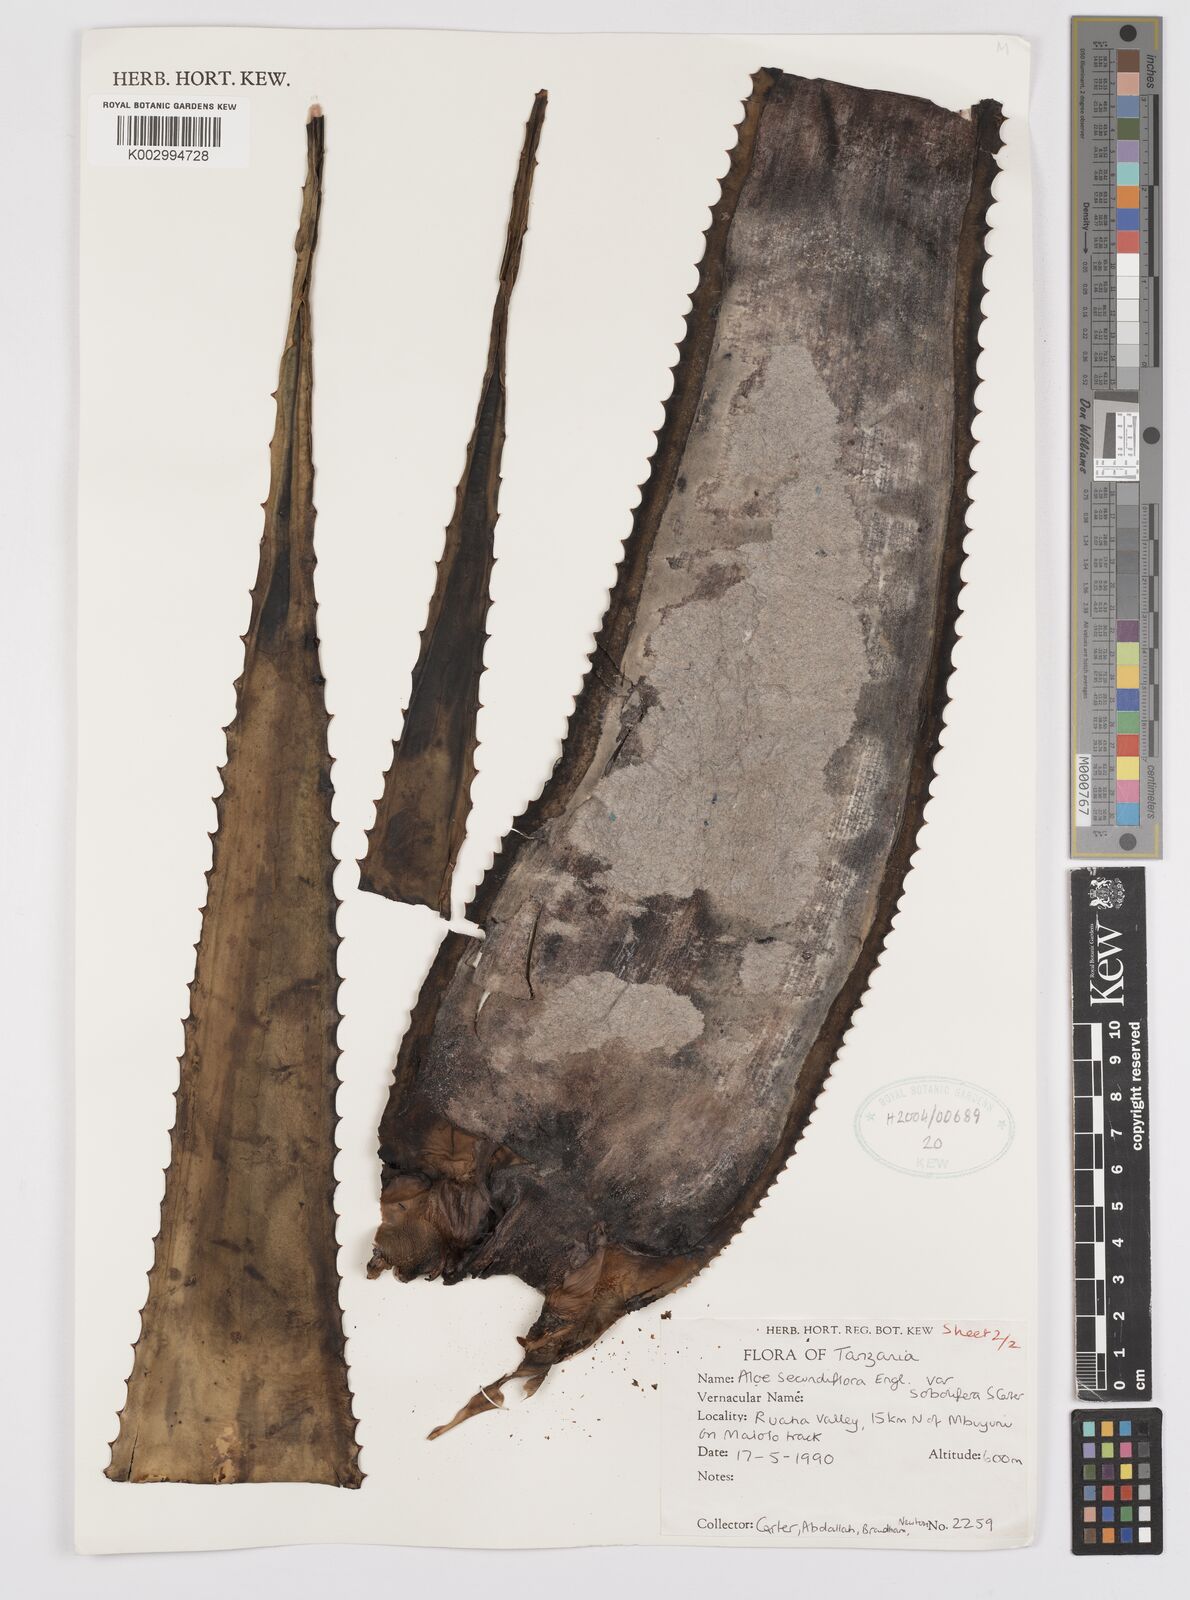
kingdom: Plantae
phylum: Tracheophyta
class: Liliopsida
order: Asparagales
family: Asphodelaceae
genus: Aloe
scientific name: Aloe sobolifera
